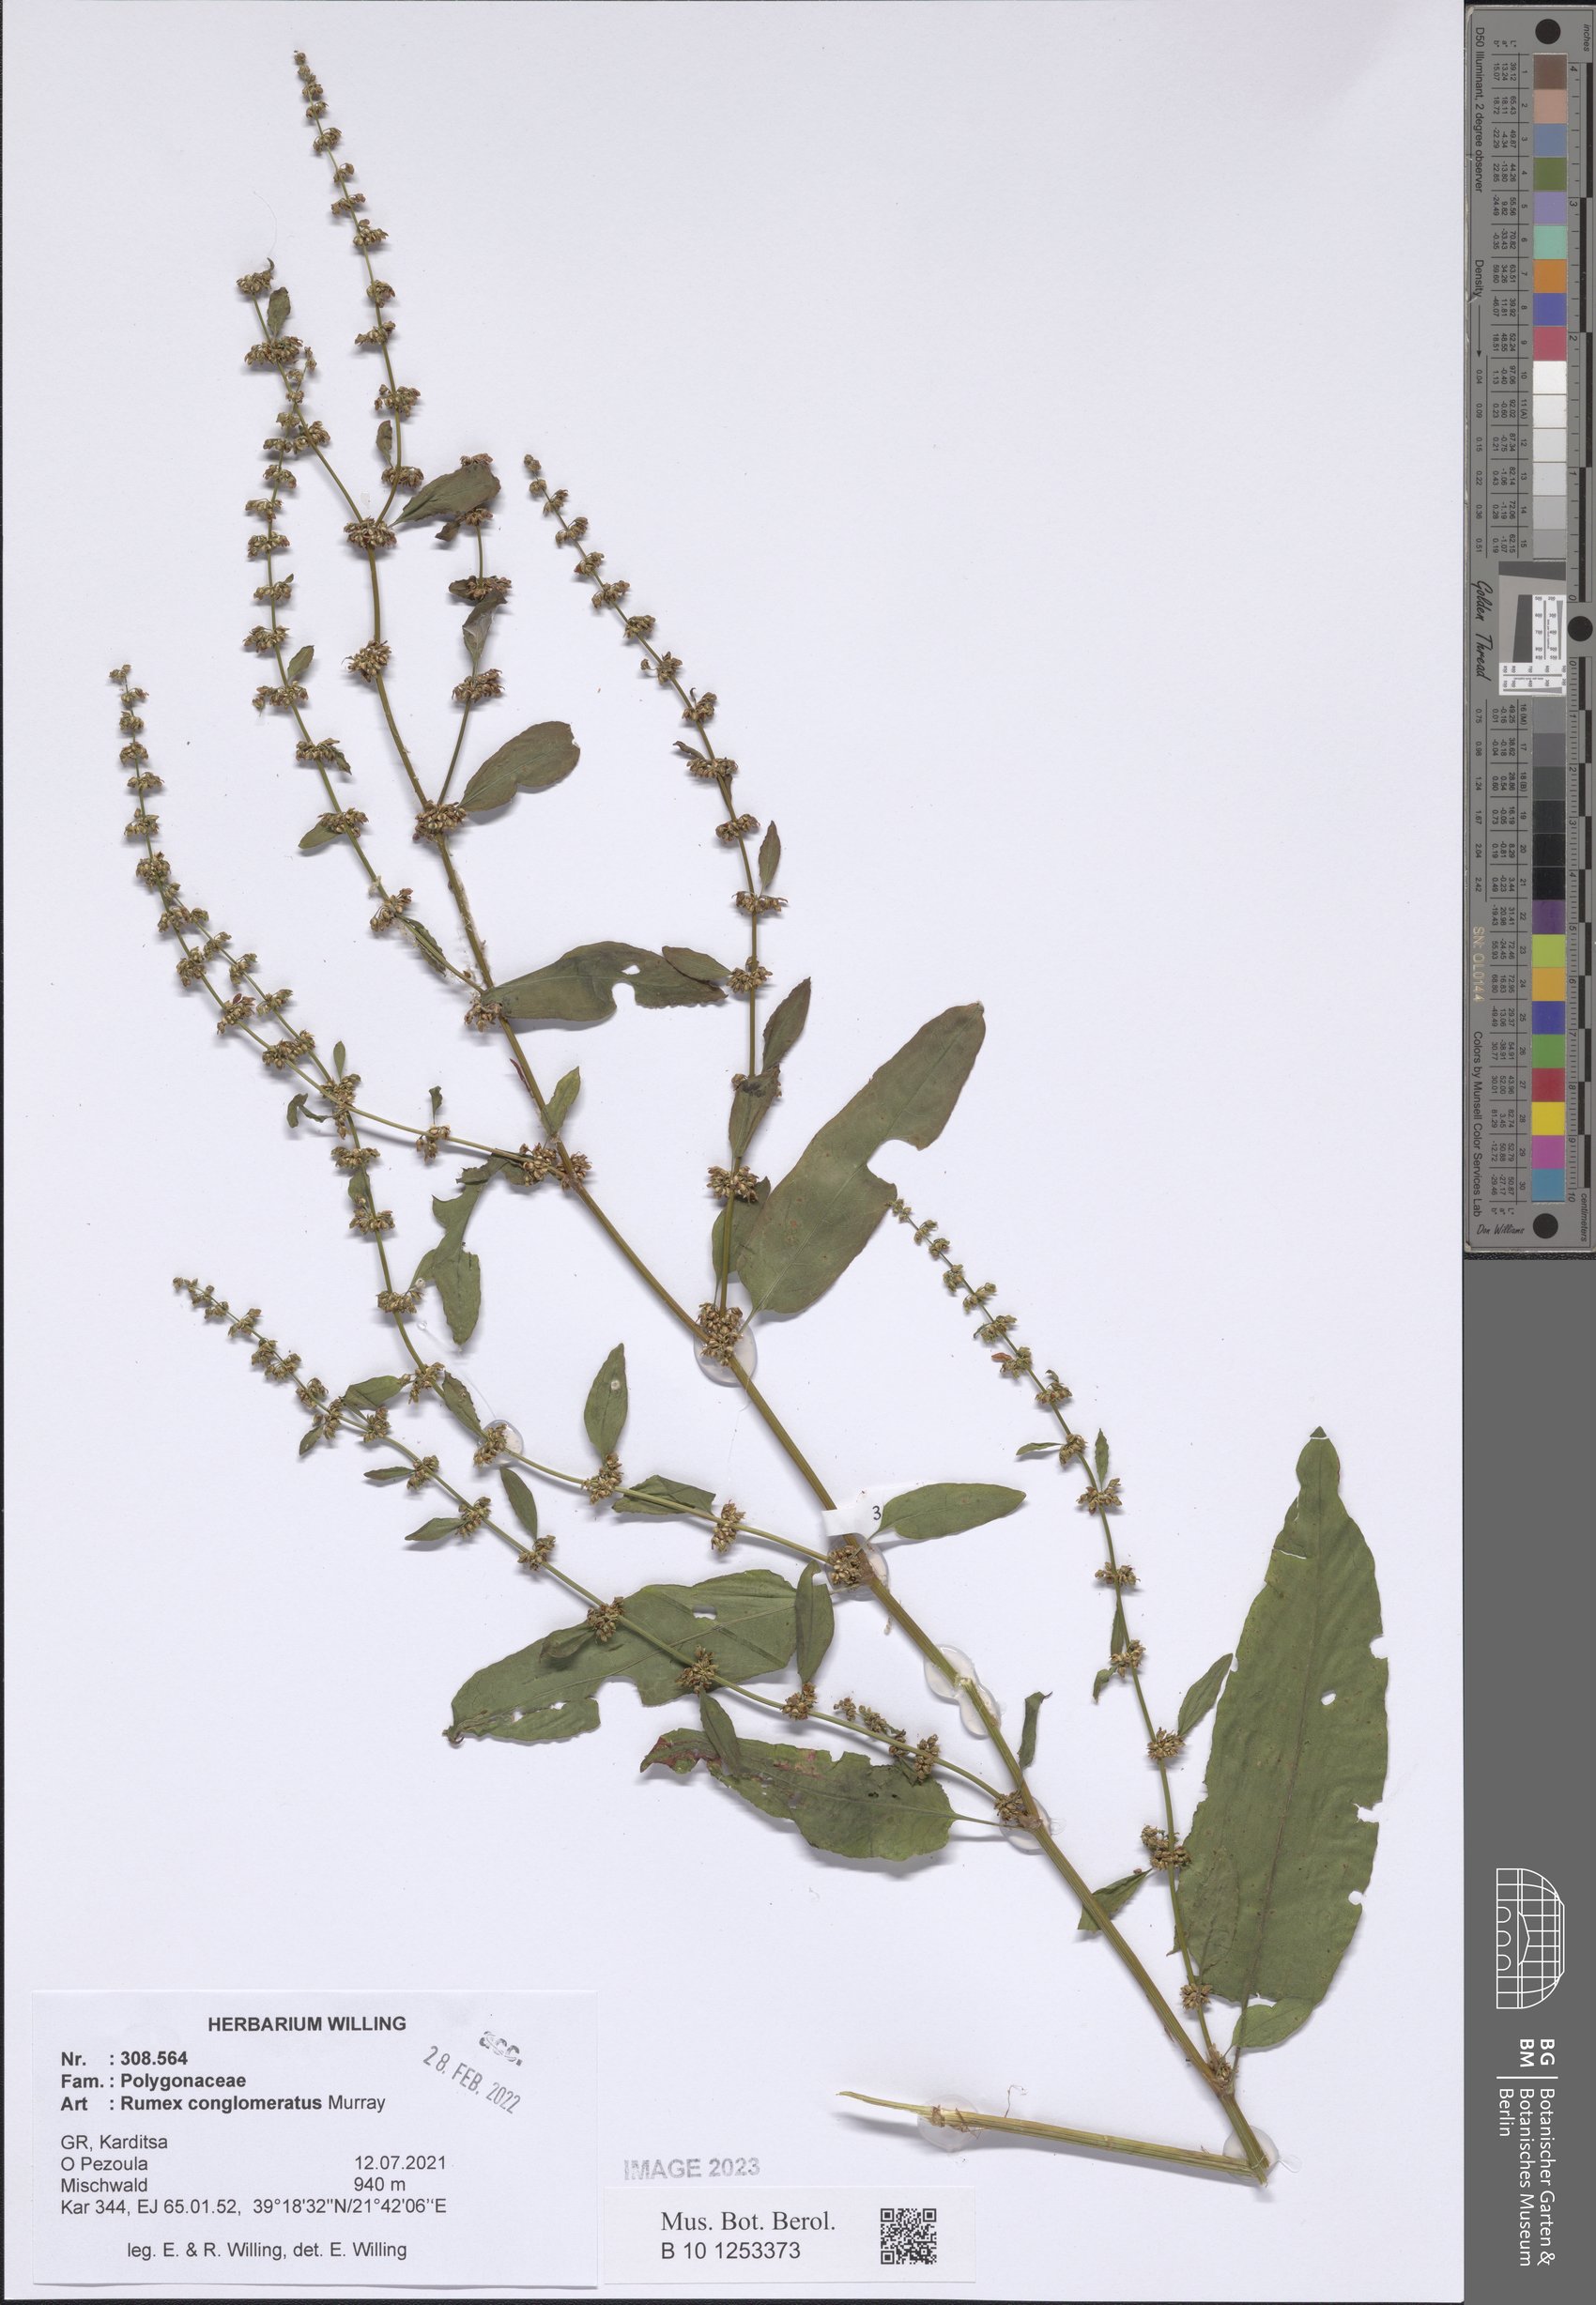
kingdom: Plantae
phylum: Tracheophyta
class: Magnoliopsida
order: Caryophyllales
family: Polygonaceae
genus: Rumex
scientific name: Rumex conglomeratus
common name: Clustered dock
